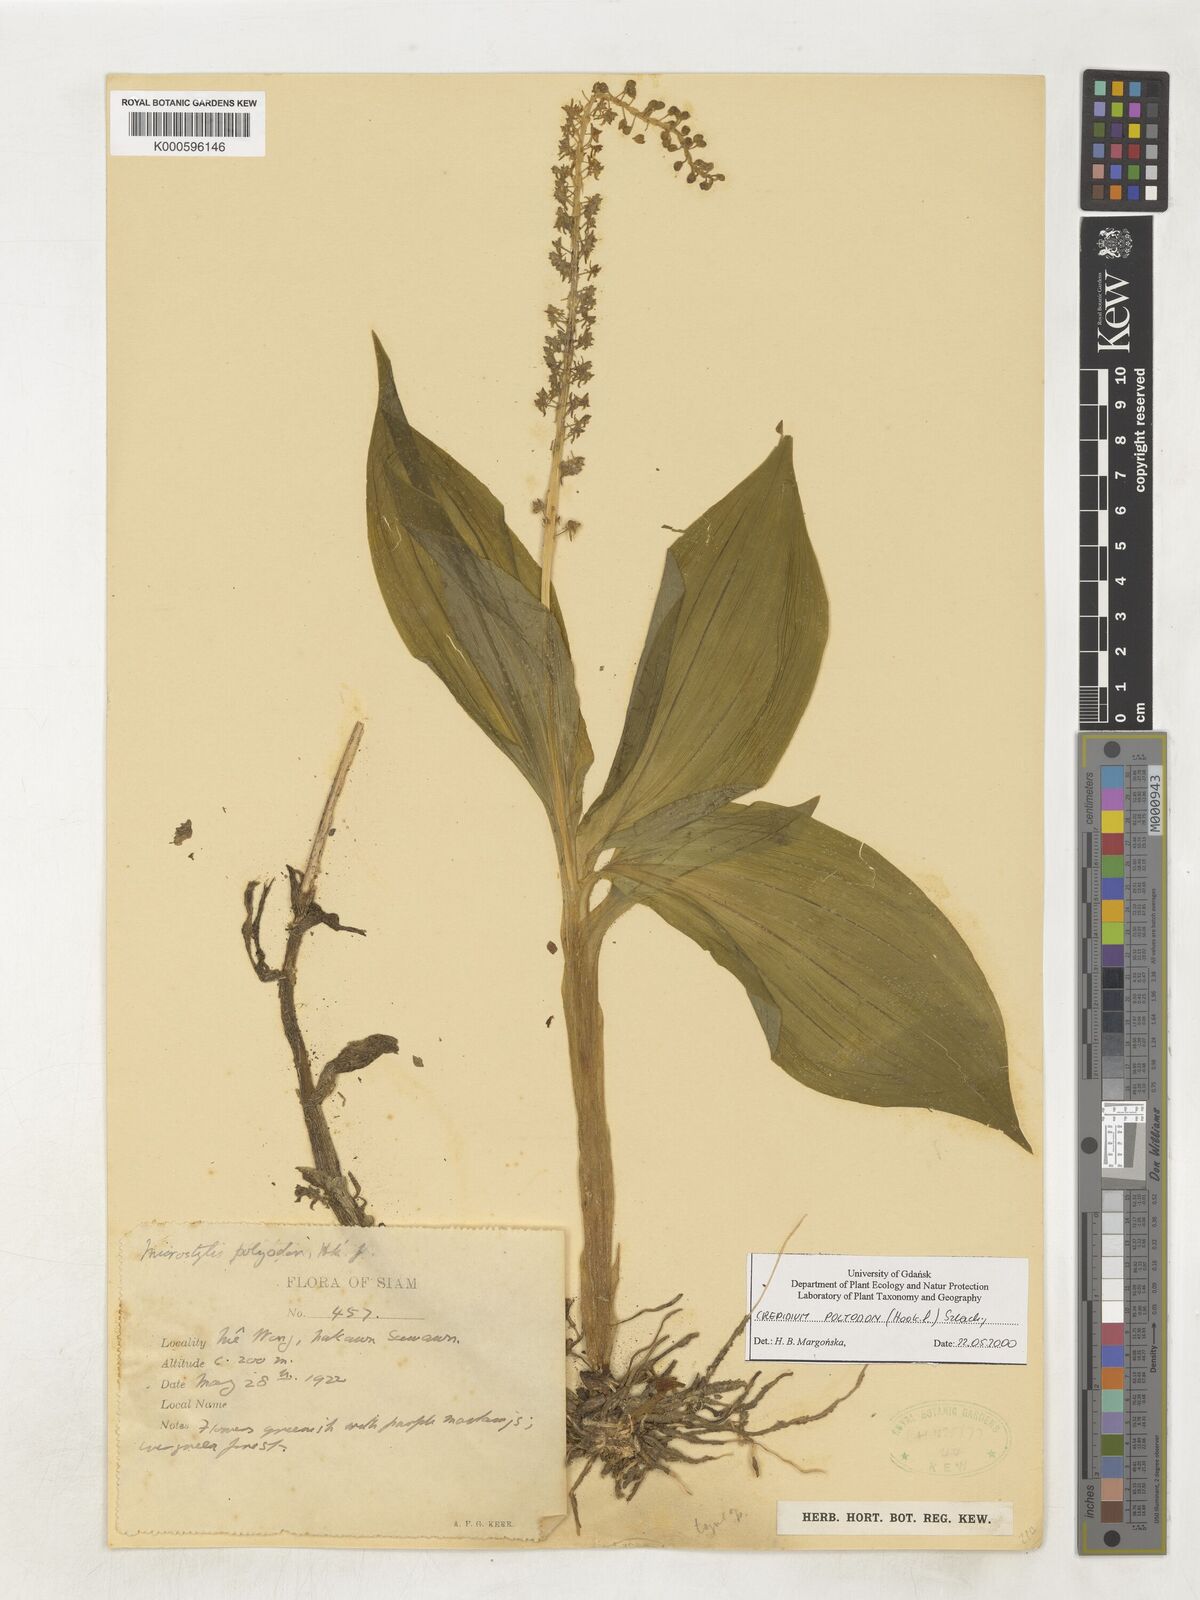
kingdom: Plantae
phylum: Tracheophyta
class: Liliopsida
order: Asparagales
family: Orchidaceae
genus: Crepidium
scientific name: Crepidium polyodon
